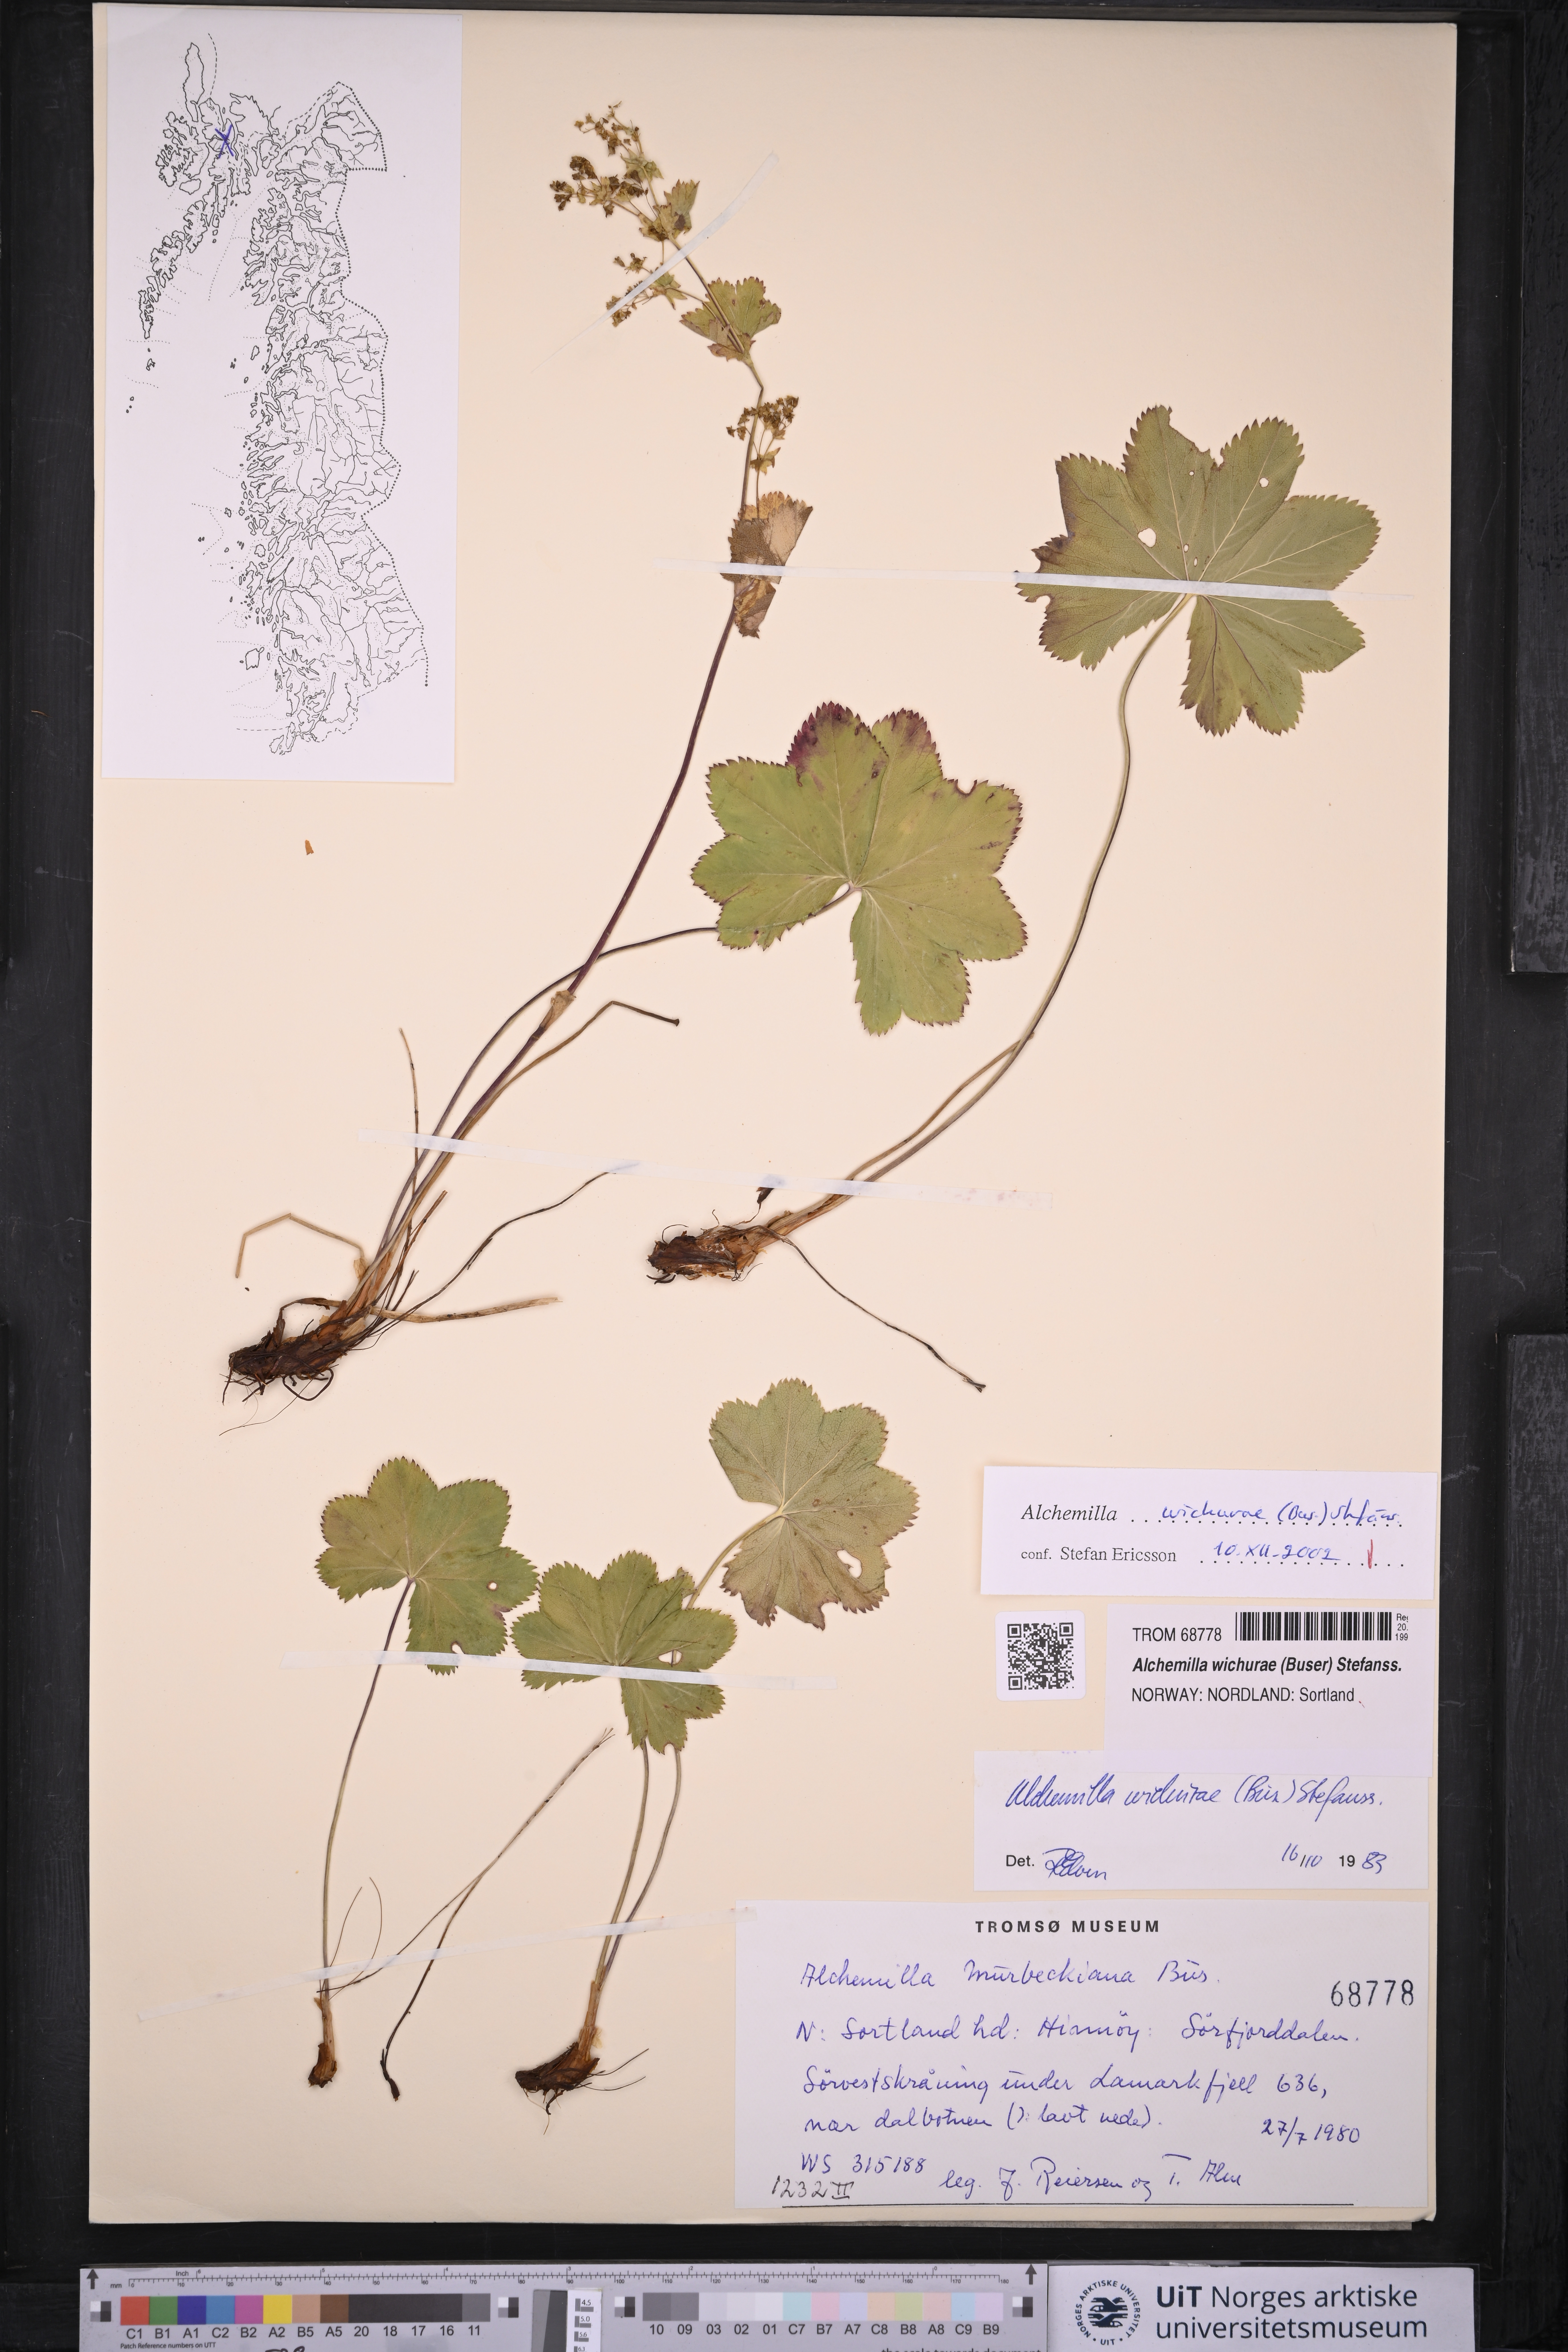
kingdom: Plantae
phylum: Tracheophyta
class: Magnoliopsida
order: Rosales
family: Rosaceae
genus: Alchemilla
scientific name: Alchemilla wichurae
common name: Rock lady's mantle
